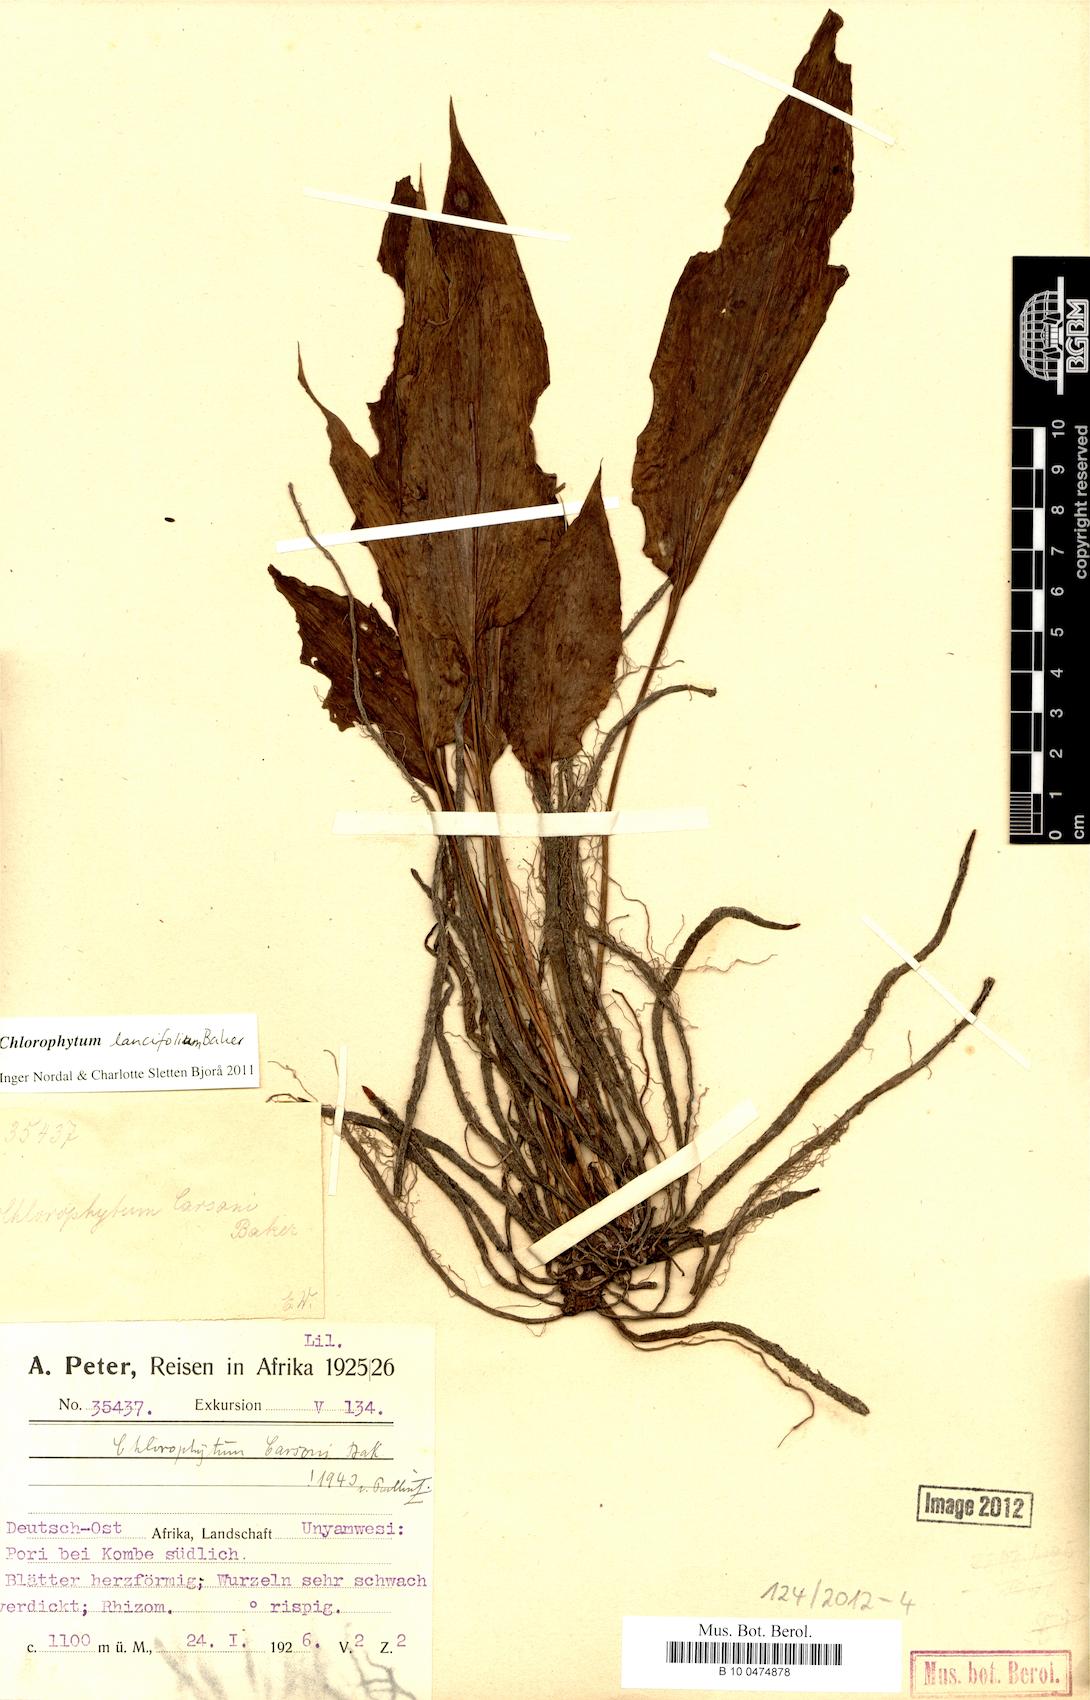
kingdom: Plantae
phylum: Tracheophyta
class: Liliopsida
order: Asparagales
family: Asparagaceae
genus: Chlorophytum
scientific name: Chlorophytum lancifolium
